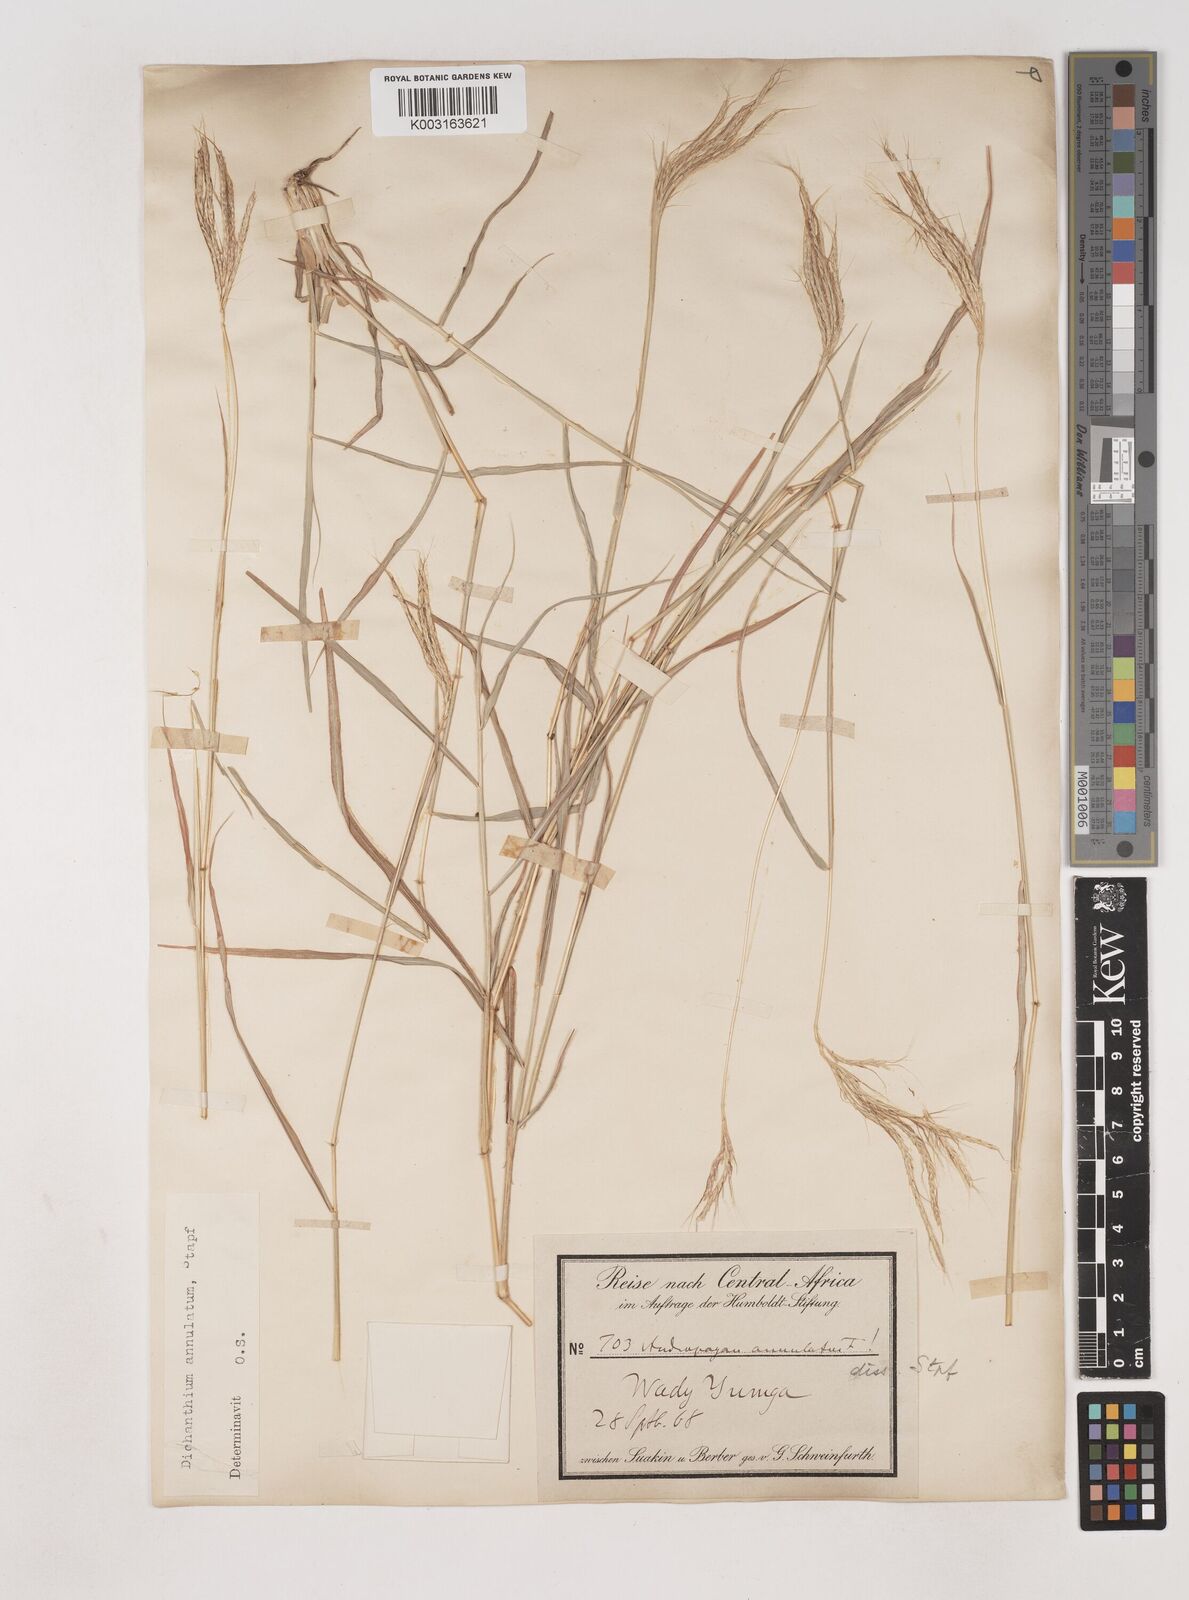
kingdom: Plantae
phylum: Tracheophyta
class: Liliopsida
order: Poales
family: Poaceae
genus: Dichanthium
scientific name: Dichanthium annulatum
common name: Kleberg's bluestem
